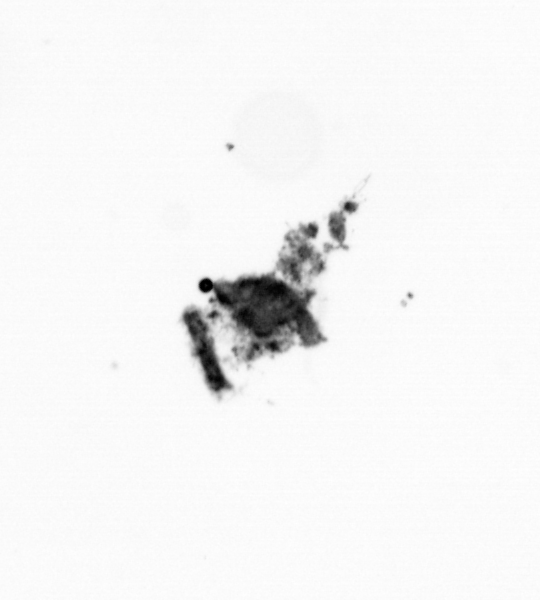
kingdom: Animalia
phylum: Annelida
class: Polychaeta
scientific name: Polychaeta
